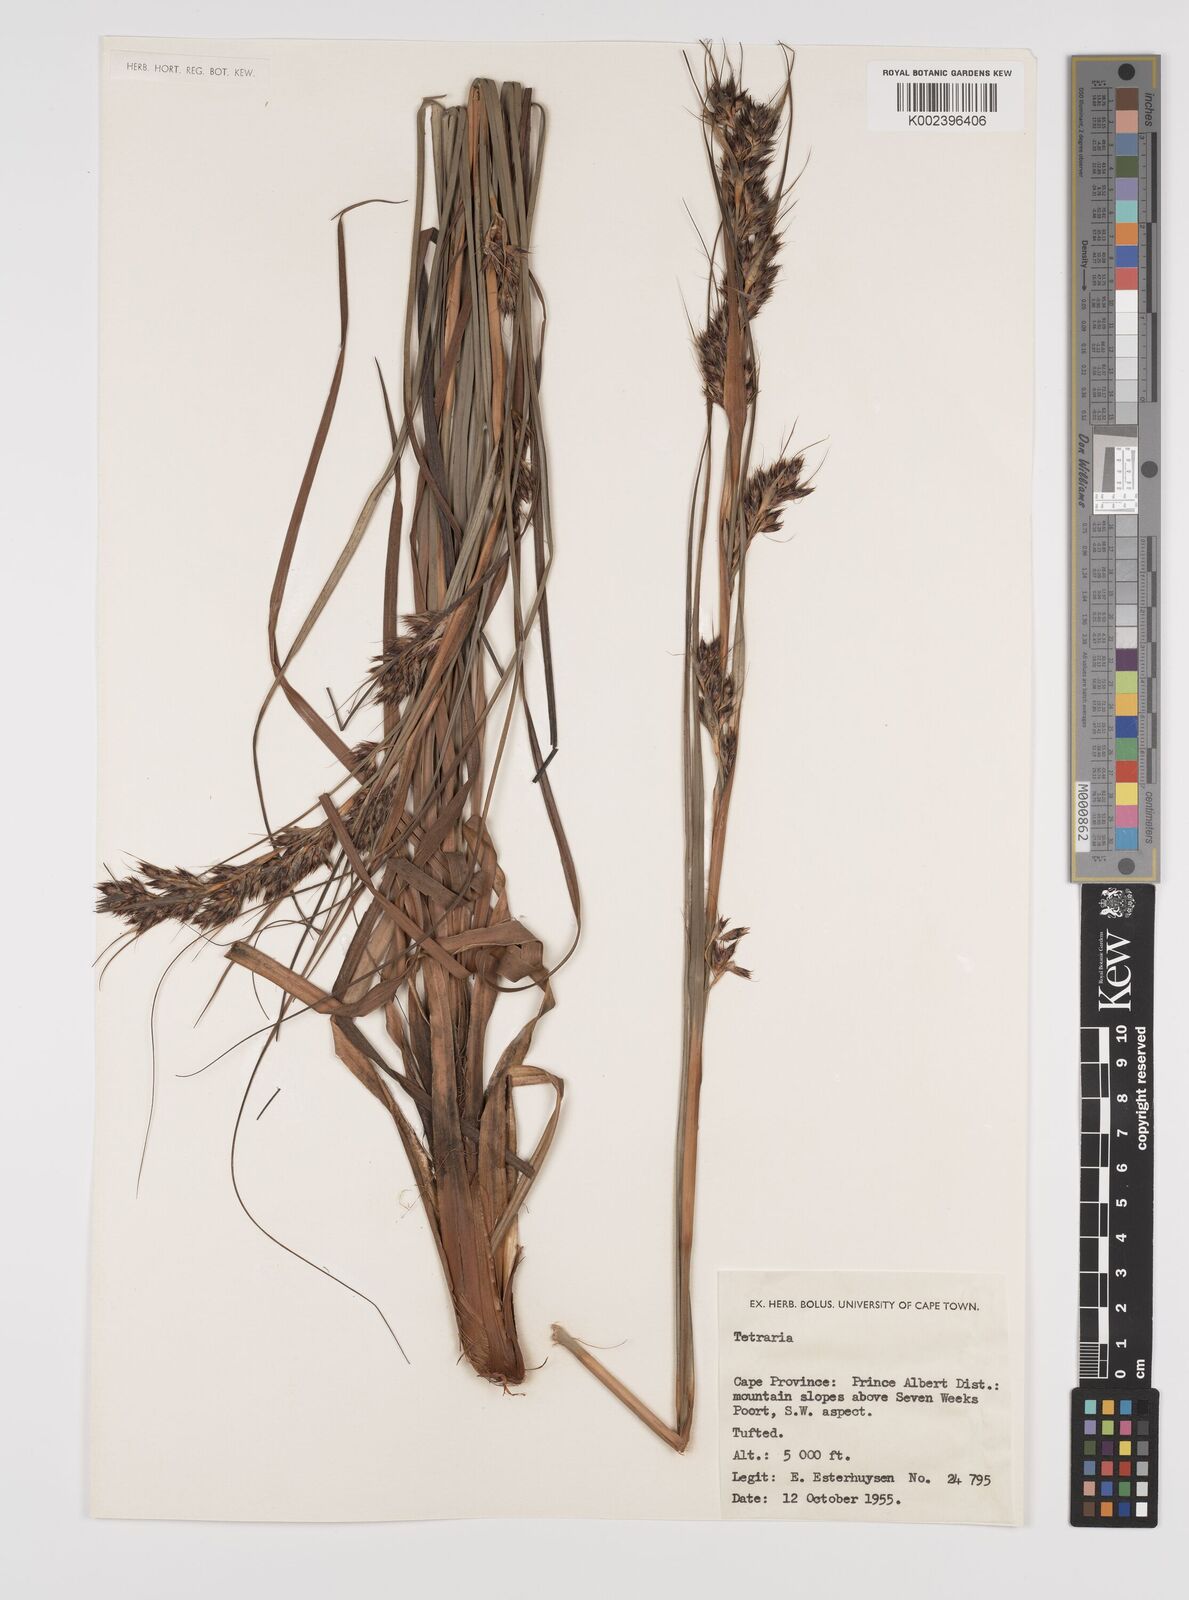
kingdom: Plantae
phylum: Tracheophyta
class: Liliopsida
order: Poales
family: Cyperaceae
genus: Tetraria
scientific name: Tetraria
